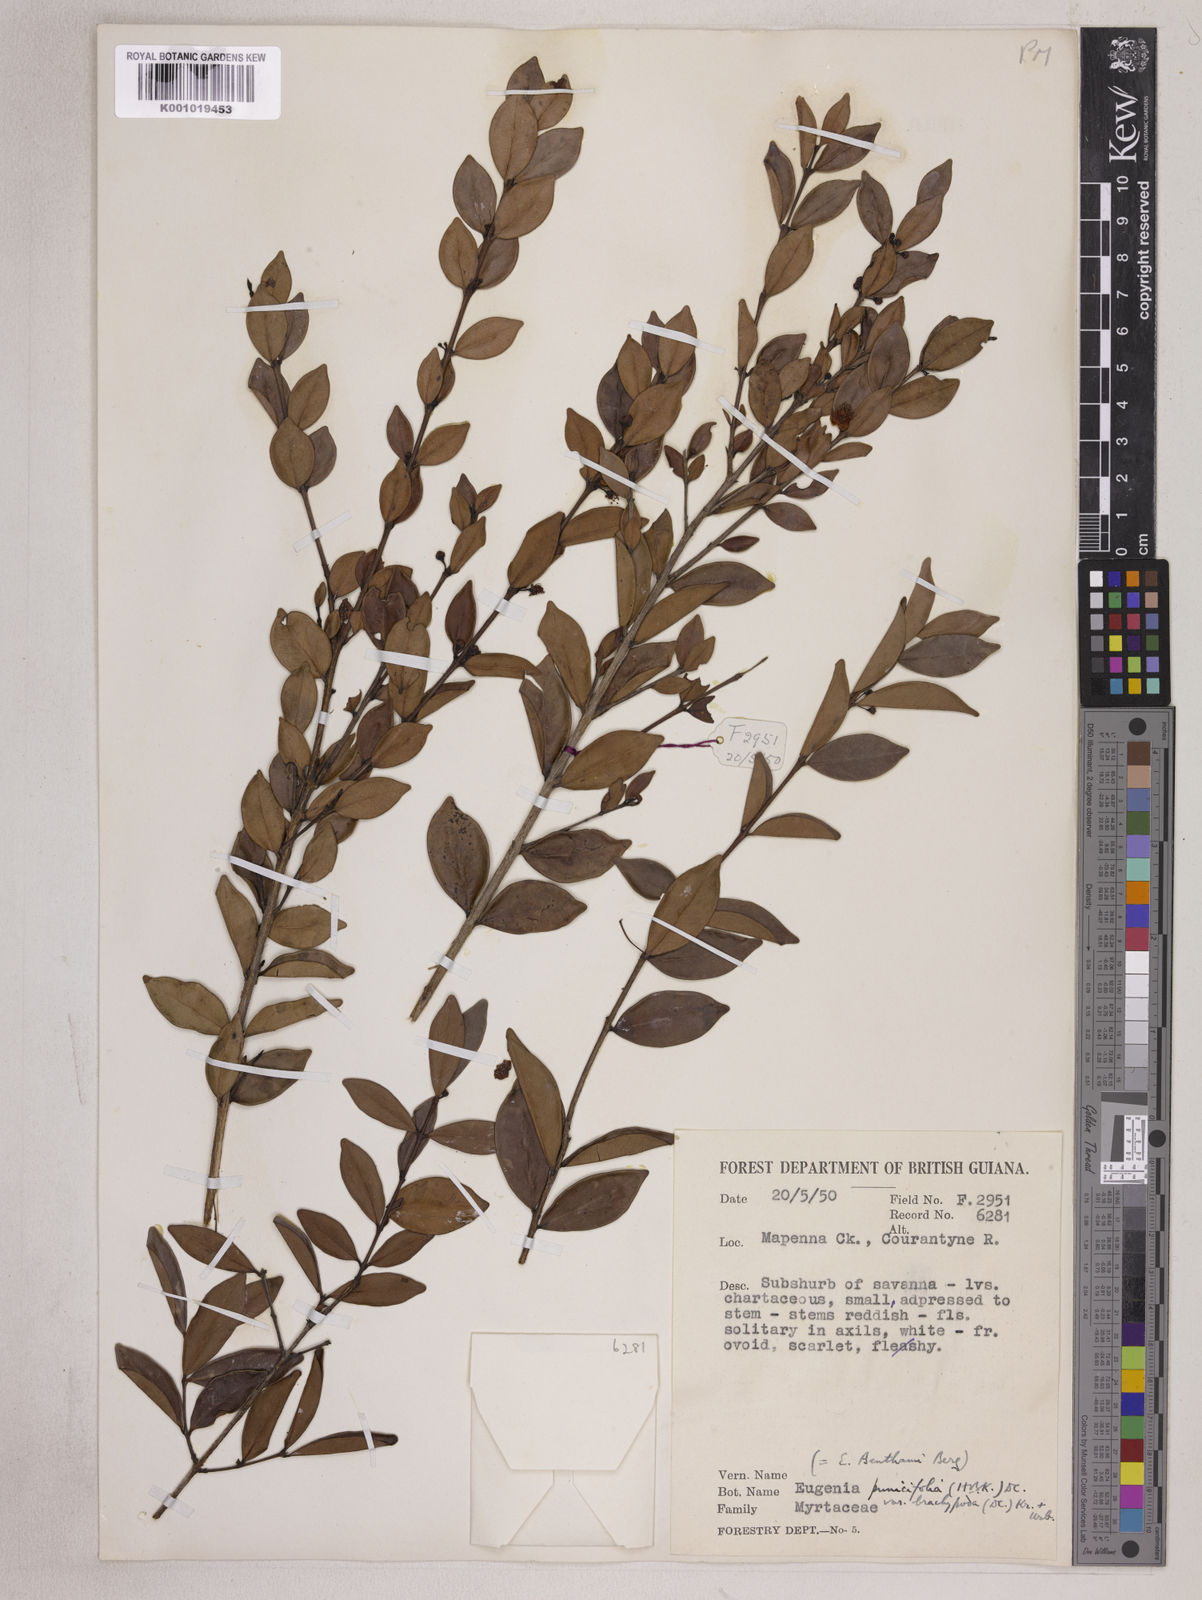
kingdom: Plantae
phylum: Tracheophyta
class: Magnoliopsida
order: Myrtales
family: Myrtaceae
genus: Eugenia
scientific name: Eugenia punicifolia
